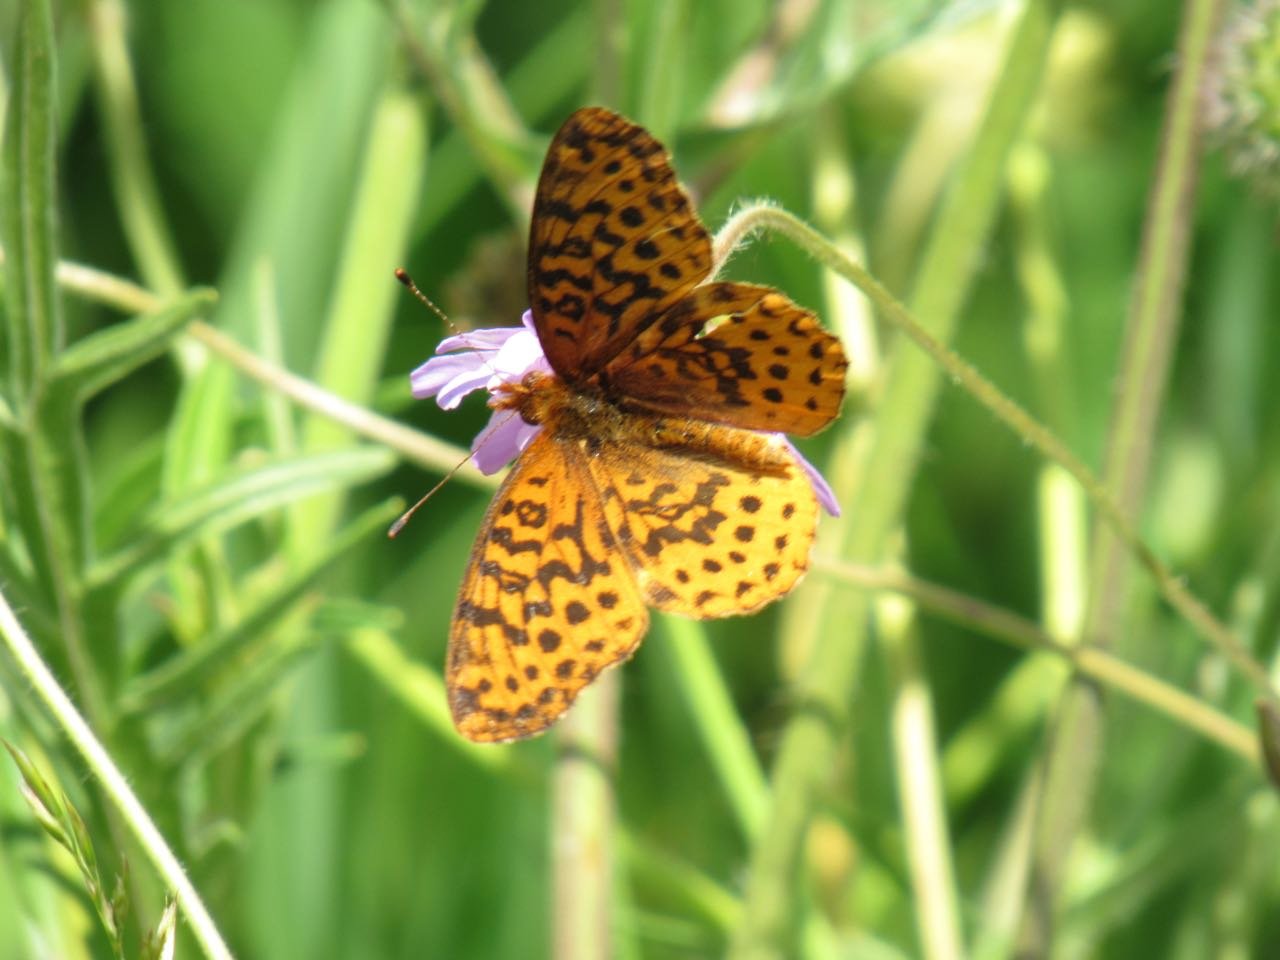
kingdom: Animalia
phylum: Arthropoda
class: Insecta
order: Lepidoptera
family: Nymphalidae
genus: Clossiana
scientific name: Clossiana toddi
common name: Meadow Fritillary
